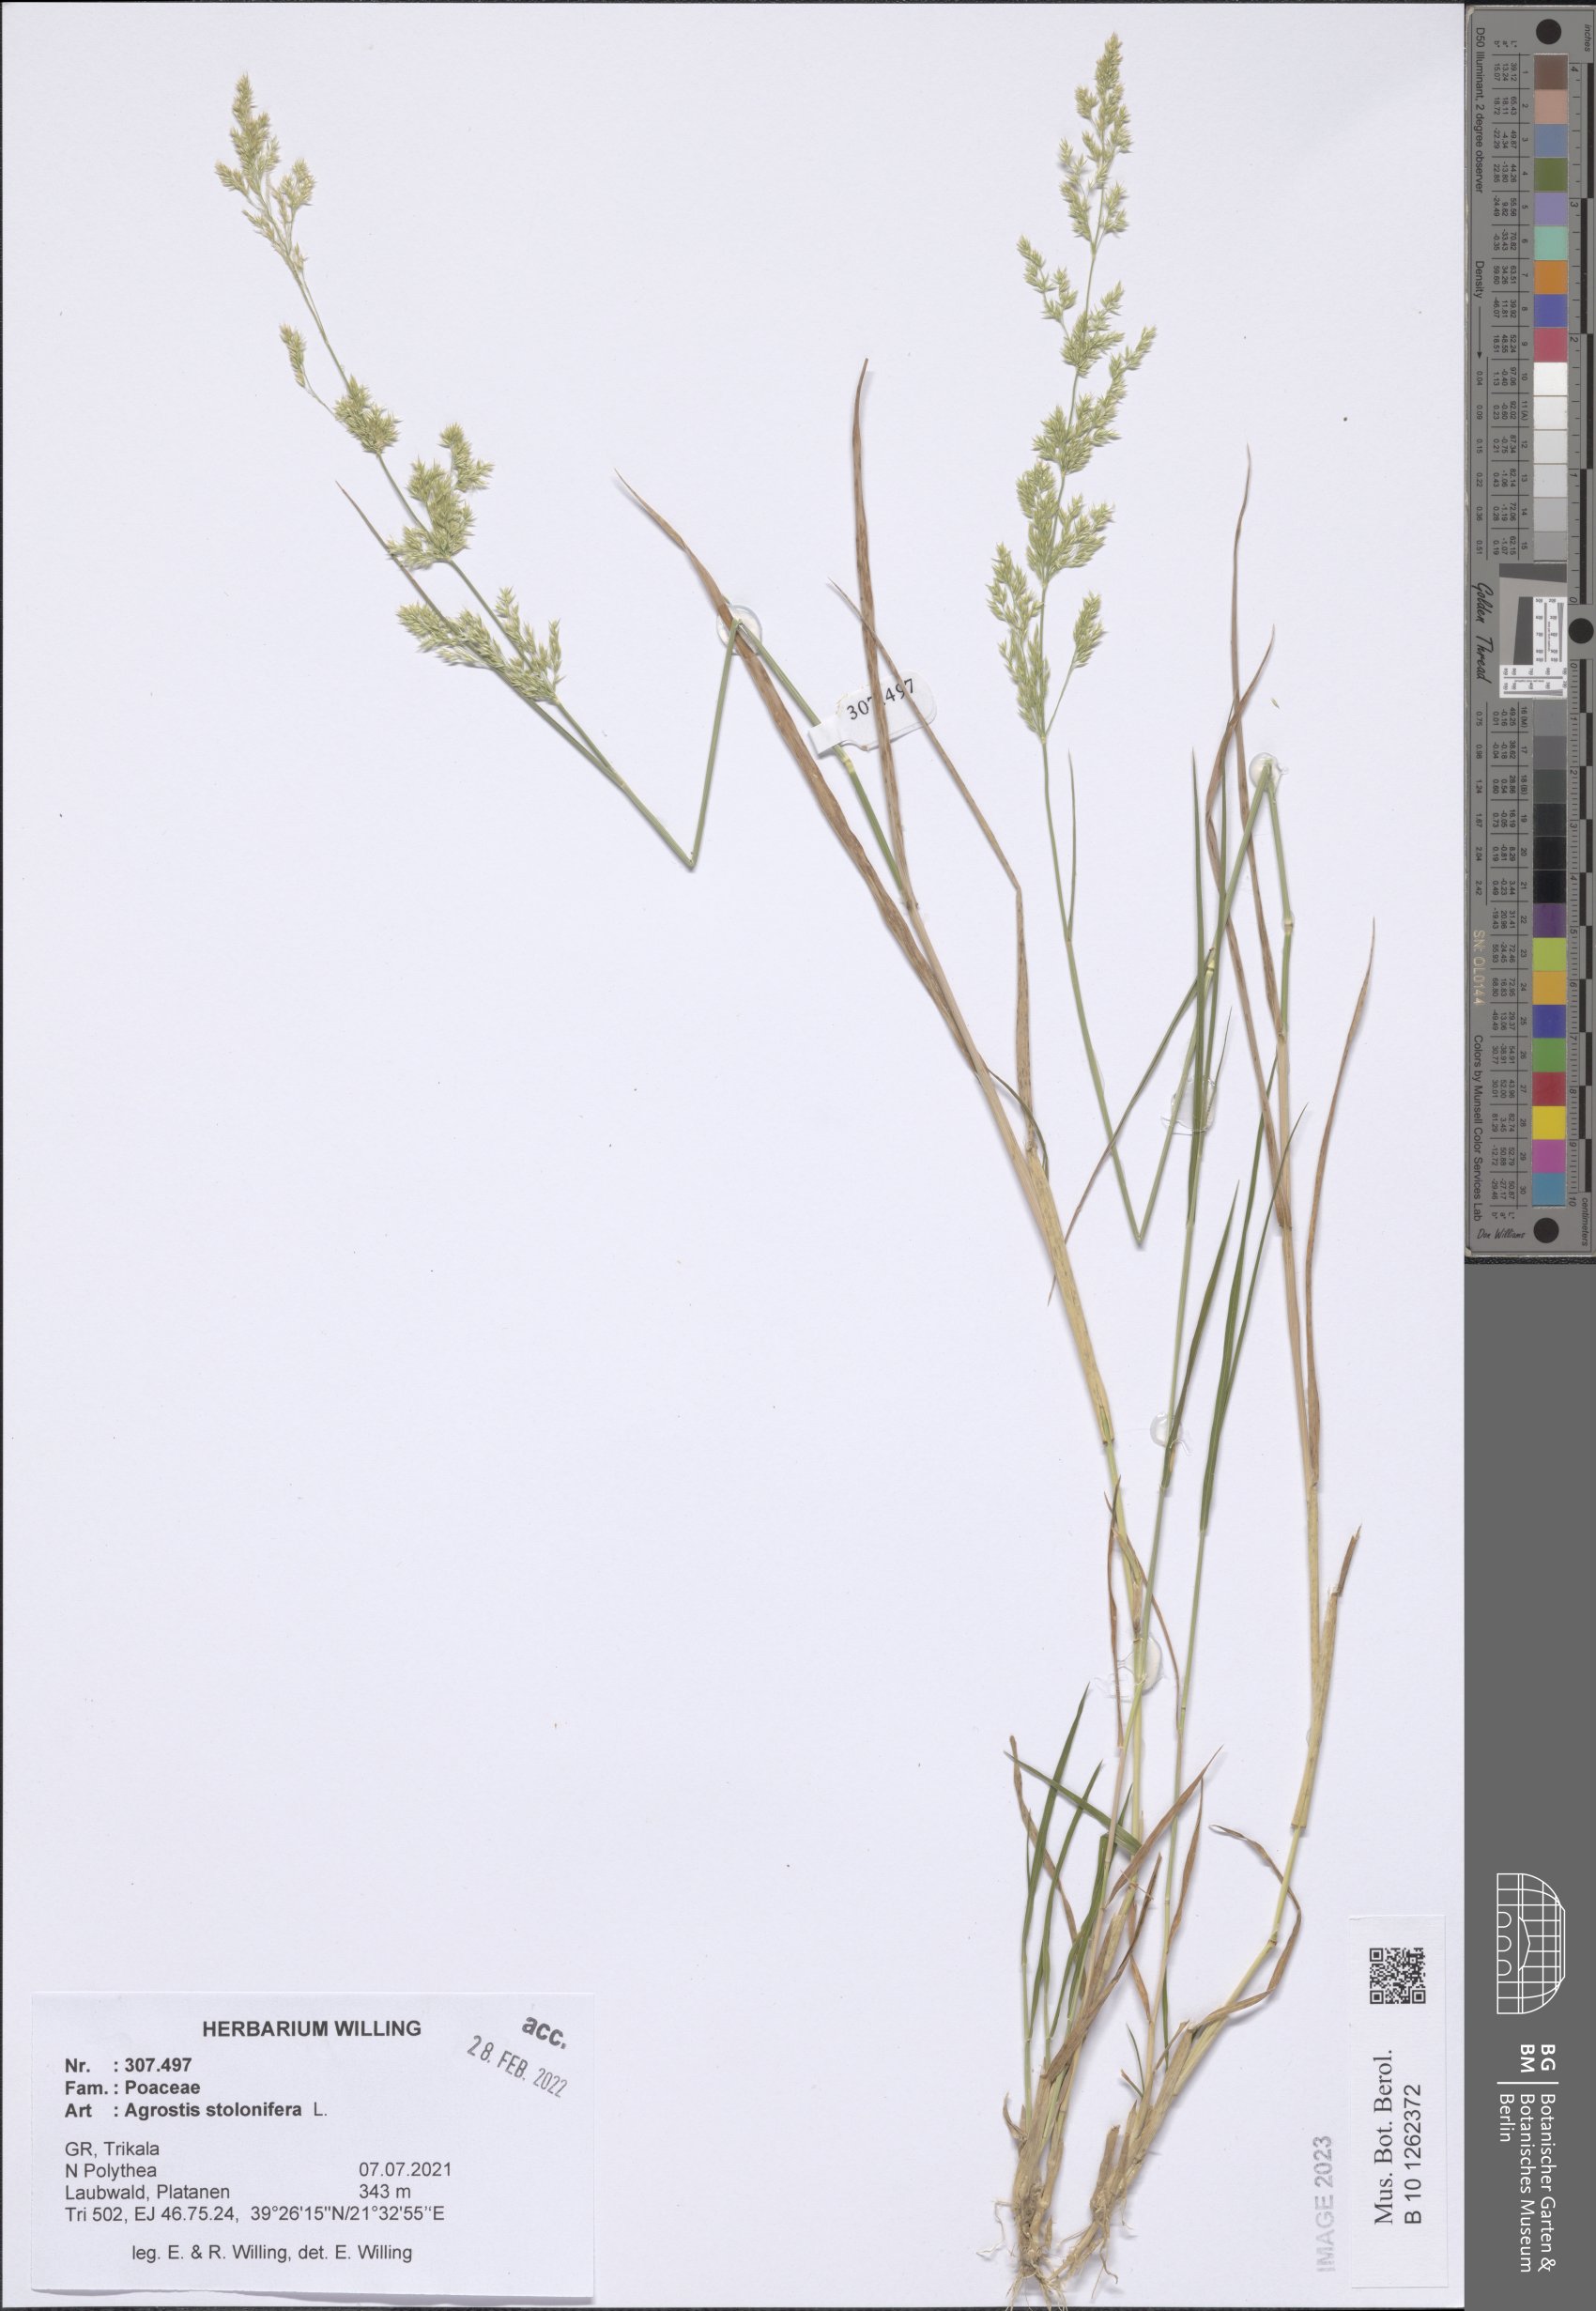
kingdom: Plantae
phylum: Tracheophyta
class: Liliopsida
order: Poales
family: Poaceae
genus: Agrostis
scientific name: Agrostis stolonifera
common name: Creeping bentgrass
